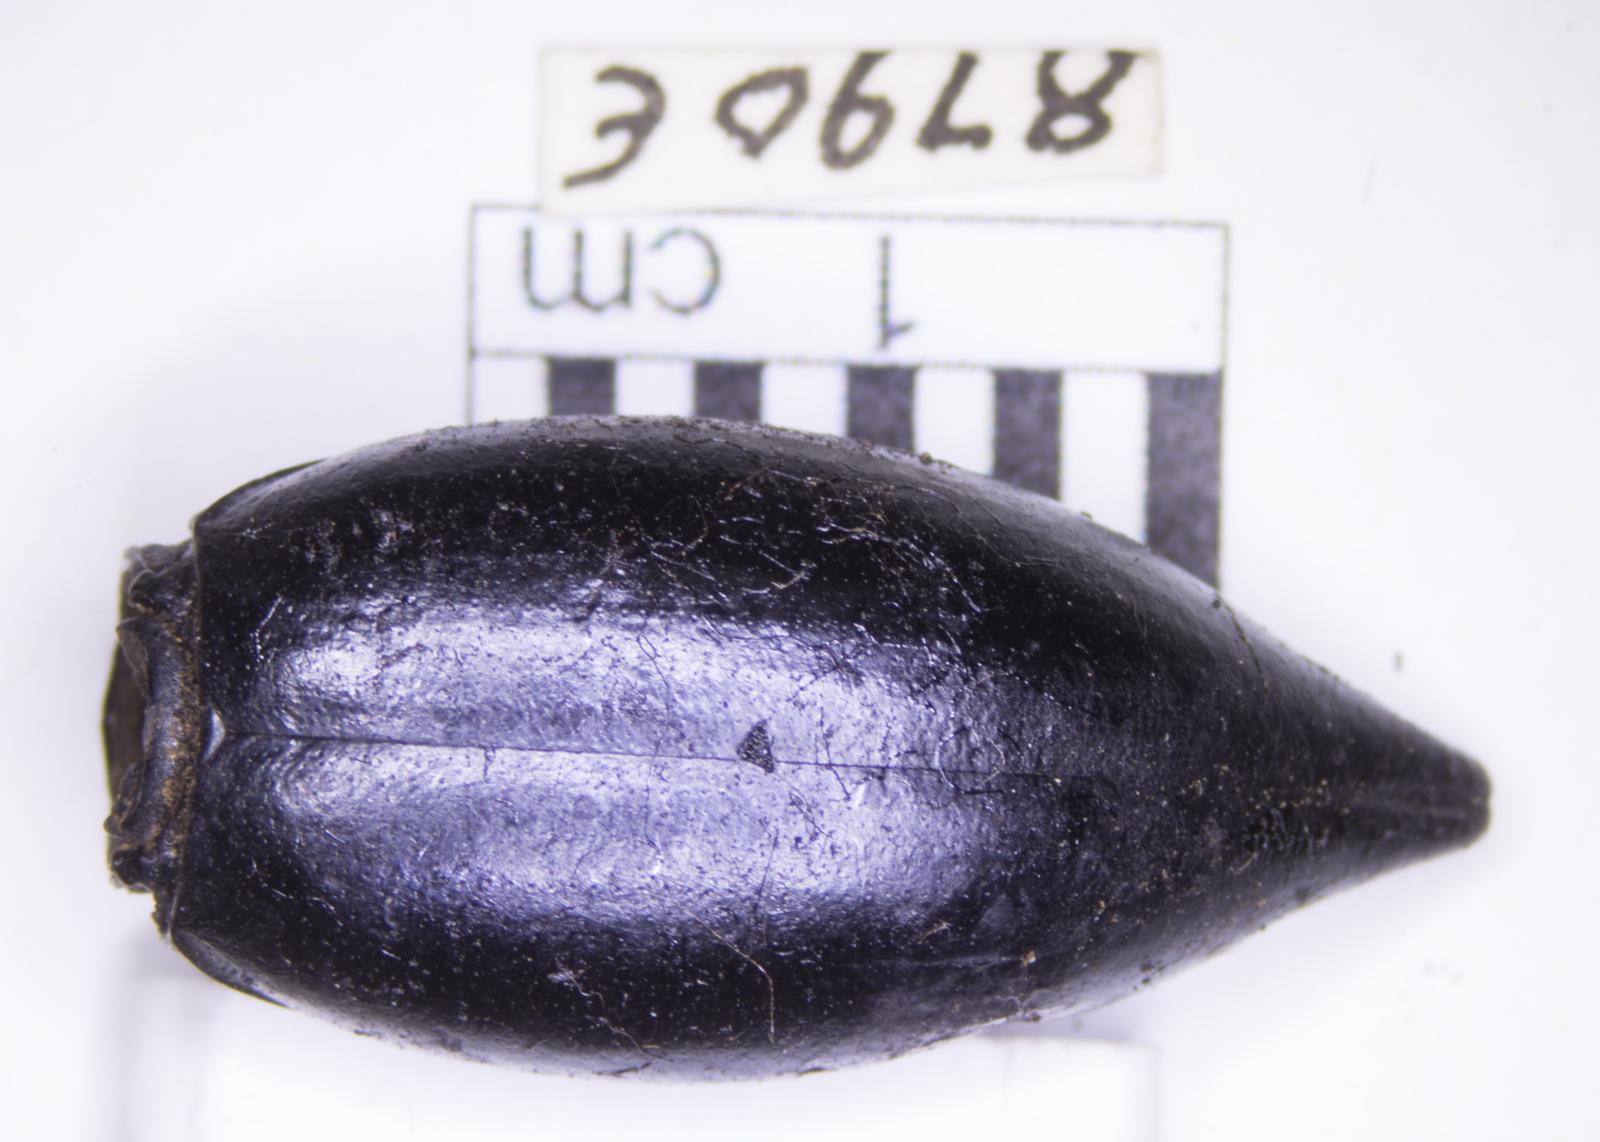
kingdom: Animalia
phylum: Arthropoda
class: Insecta
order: Coleoptera
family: Tenebrionidae
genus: Eleodes
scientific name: Eleodes acuticauda
